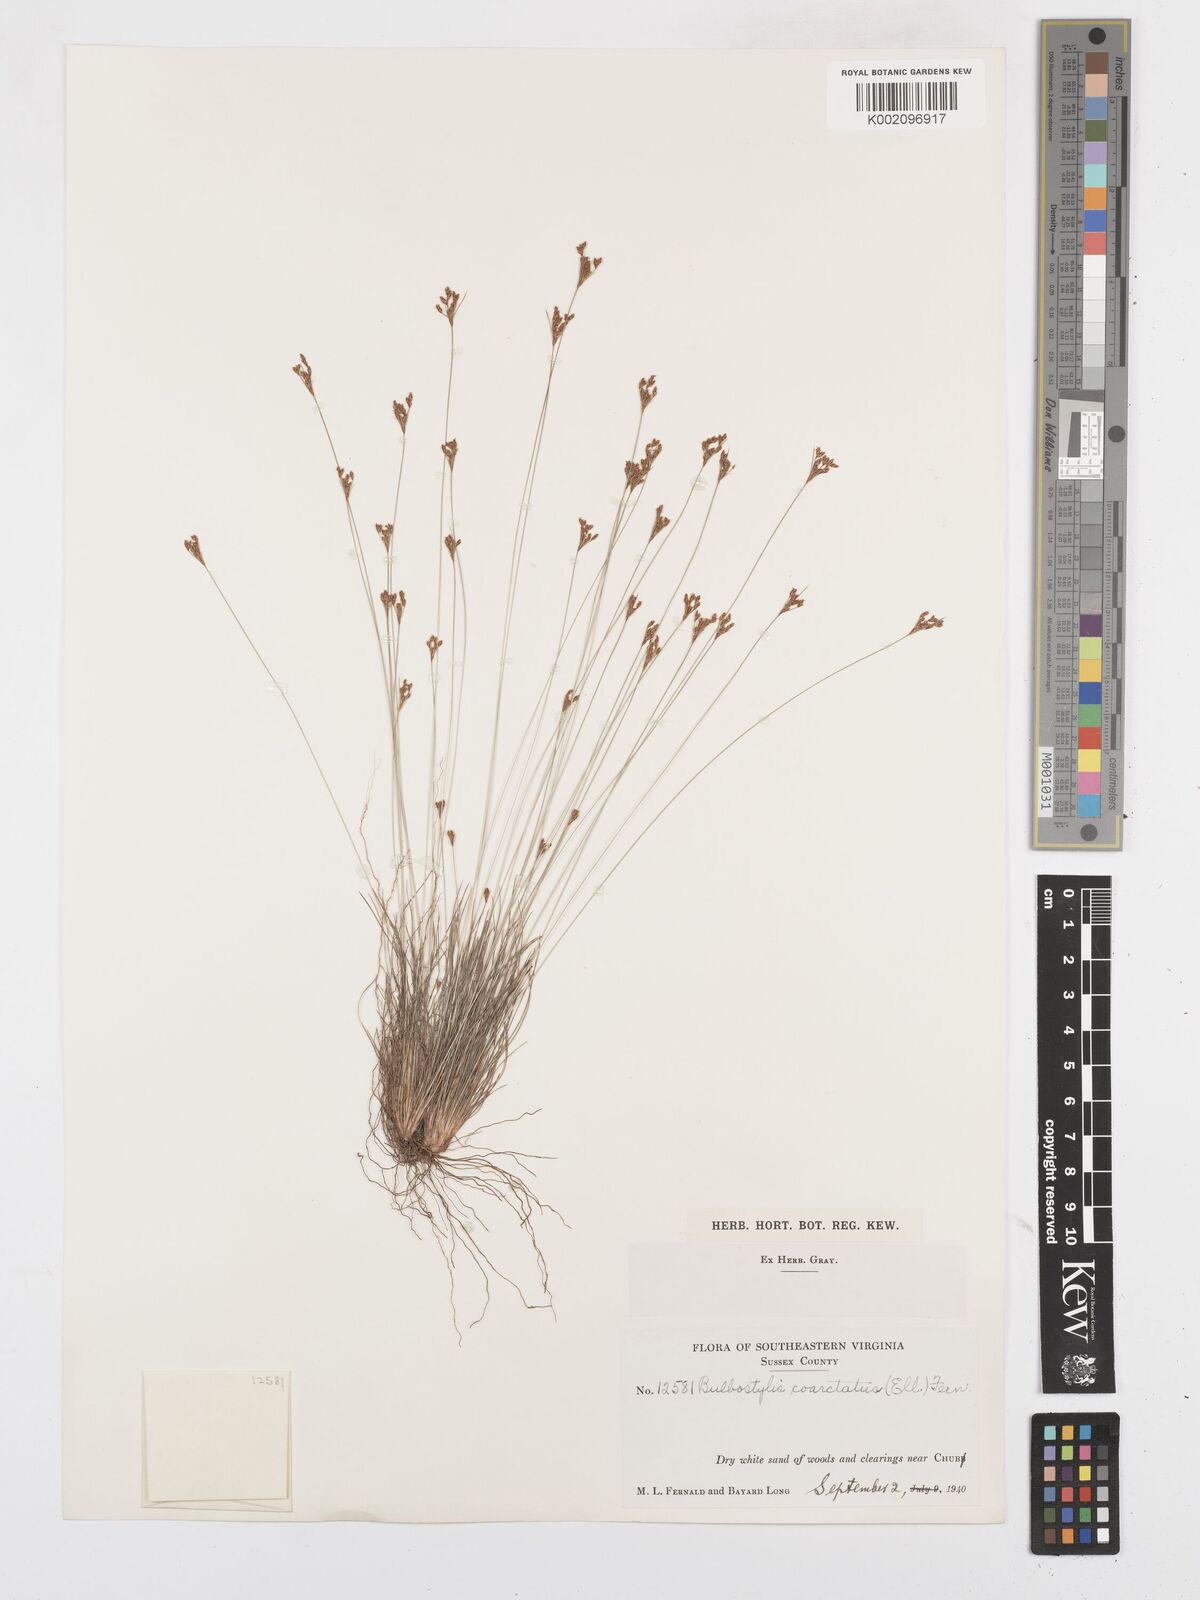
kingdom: Plantae
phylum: Tracheophyta
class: Liliopsida
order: Poales
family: Cyperaceae
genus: Bulbostylis
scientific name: Bulbostylis ciliatifolia
